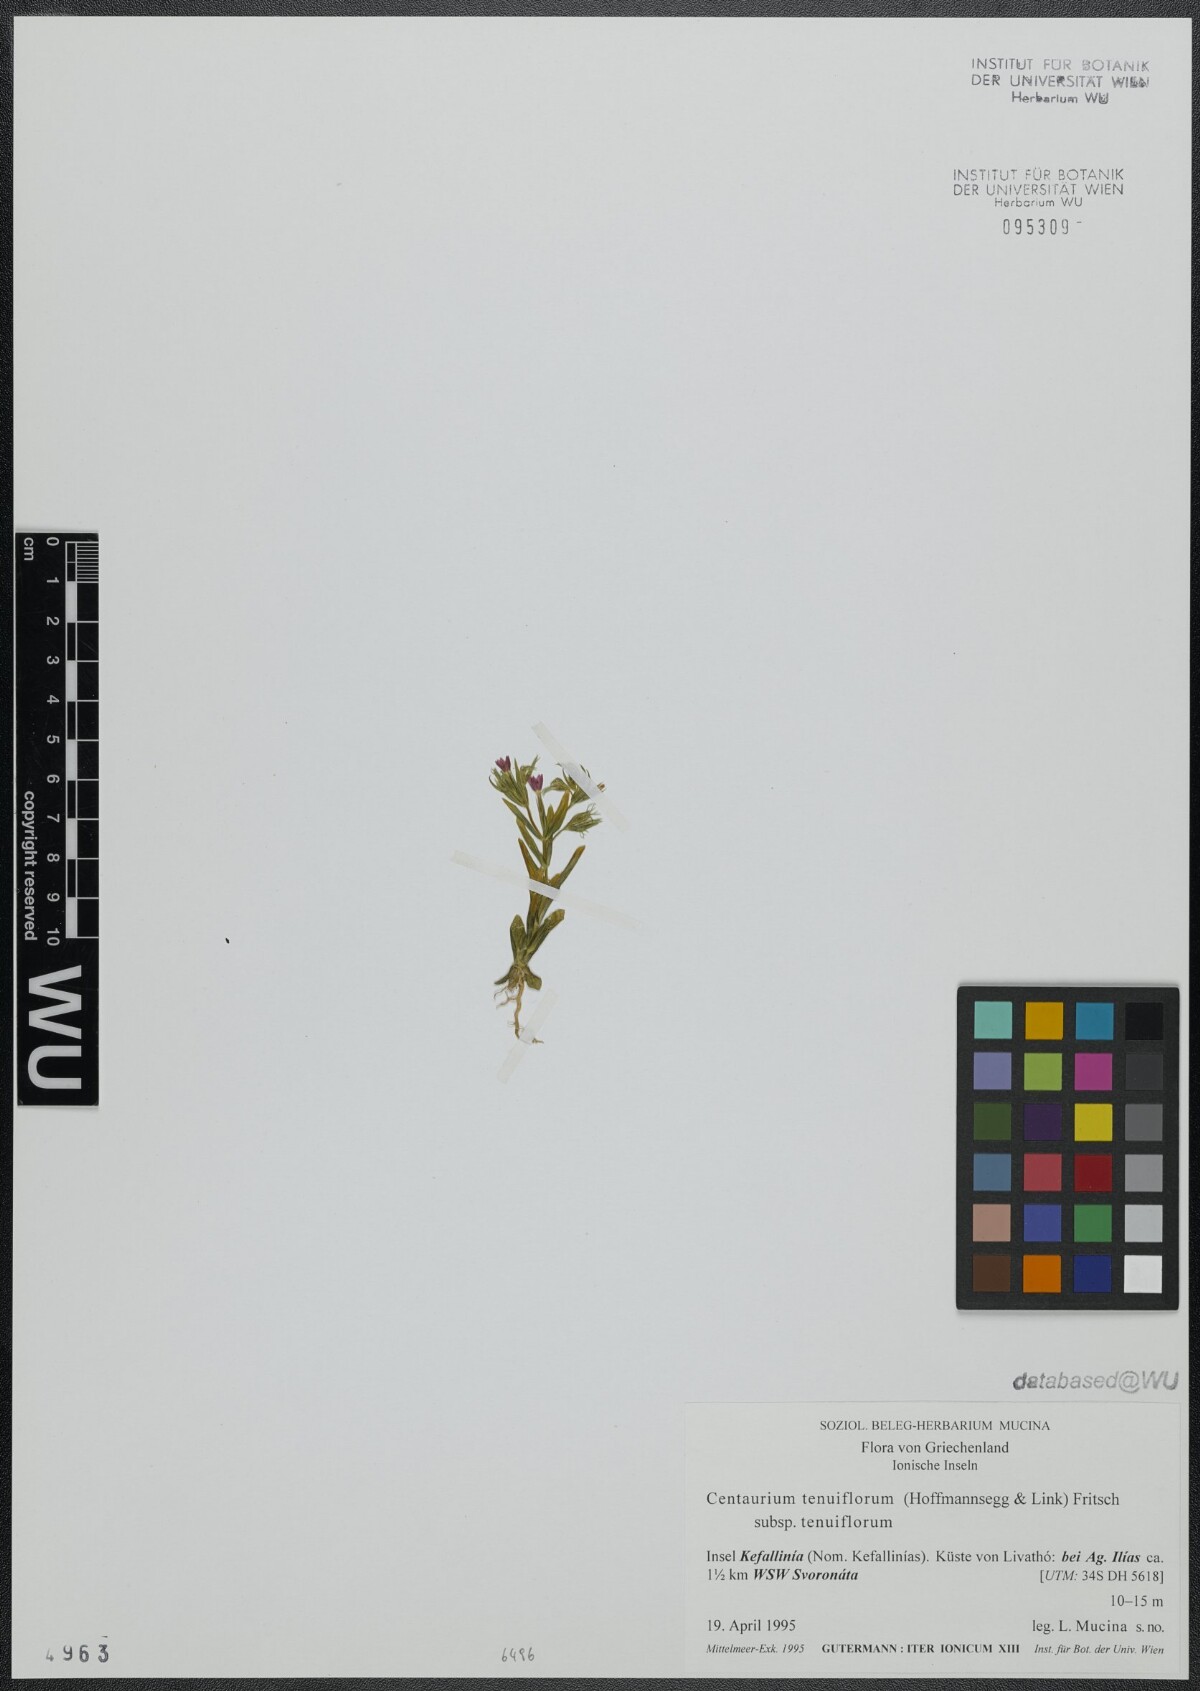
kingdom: Plantae
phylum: Tracheophyta
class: Magnoliopsida
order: Gentianales
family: Gentianaceae
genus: Centaurium
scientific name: Centaurium tenuiflorum
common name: Slender centaury
